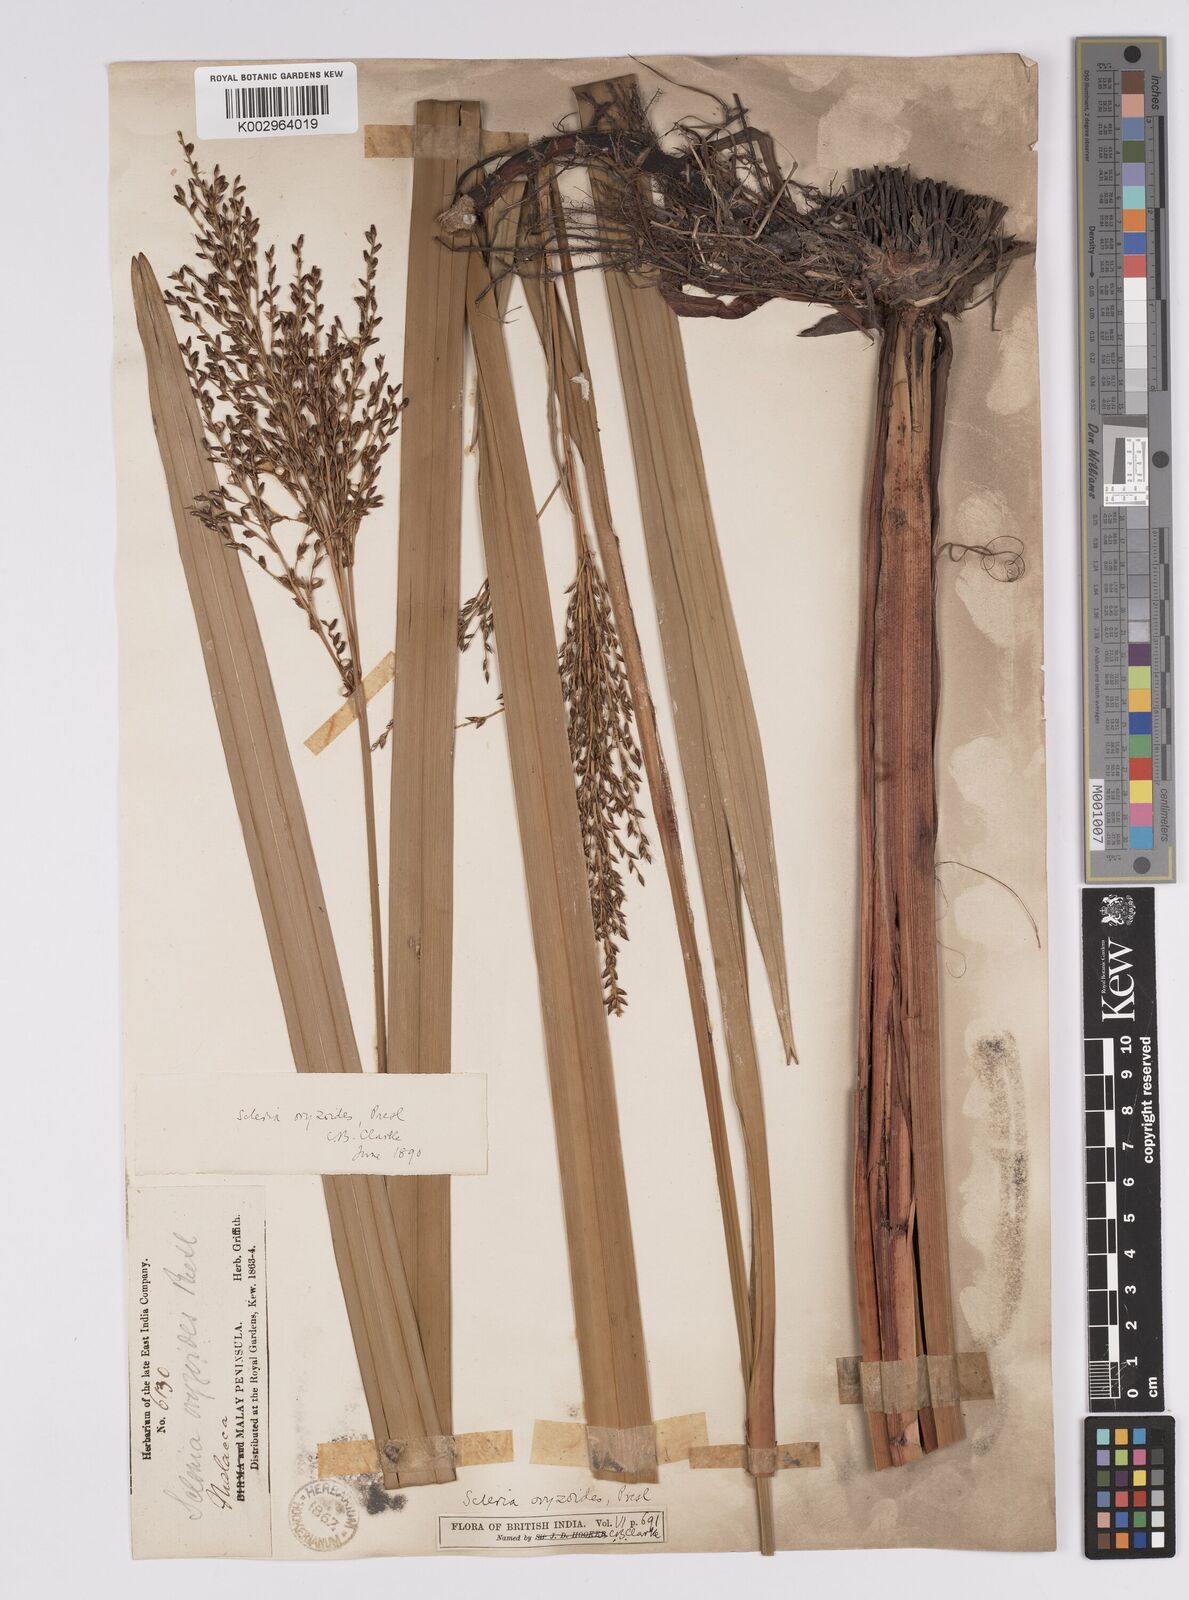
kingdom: Plantae
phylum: Tracheophyta
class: Liliopsida
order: Poales
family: Cyperaceae
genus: Scleria
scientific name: Scleria poiformis
